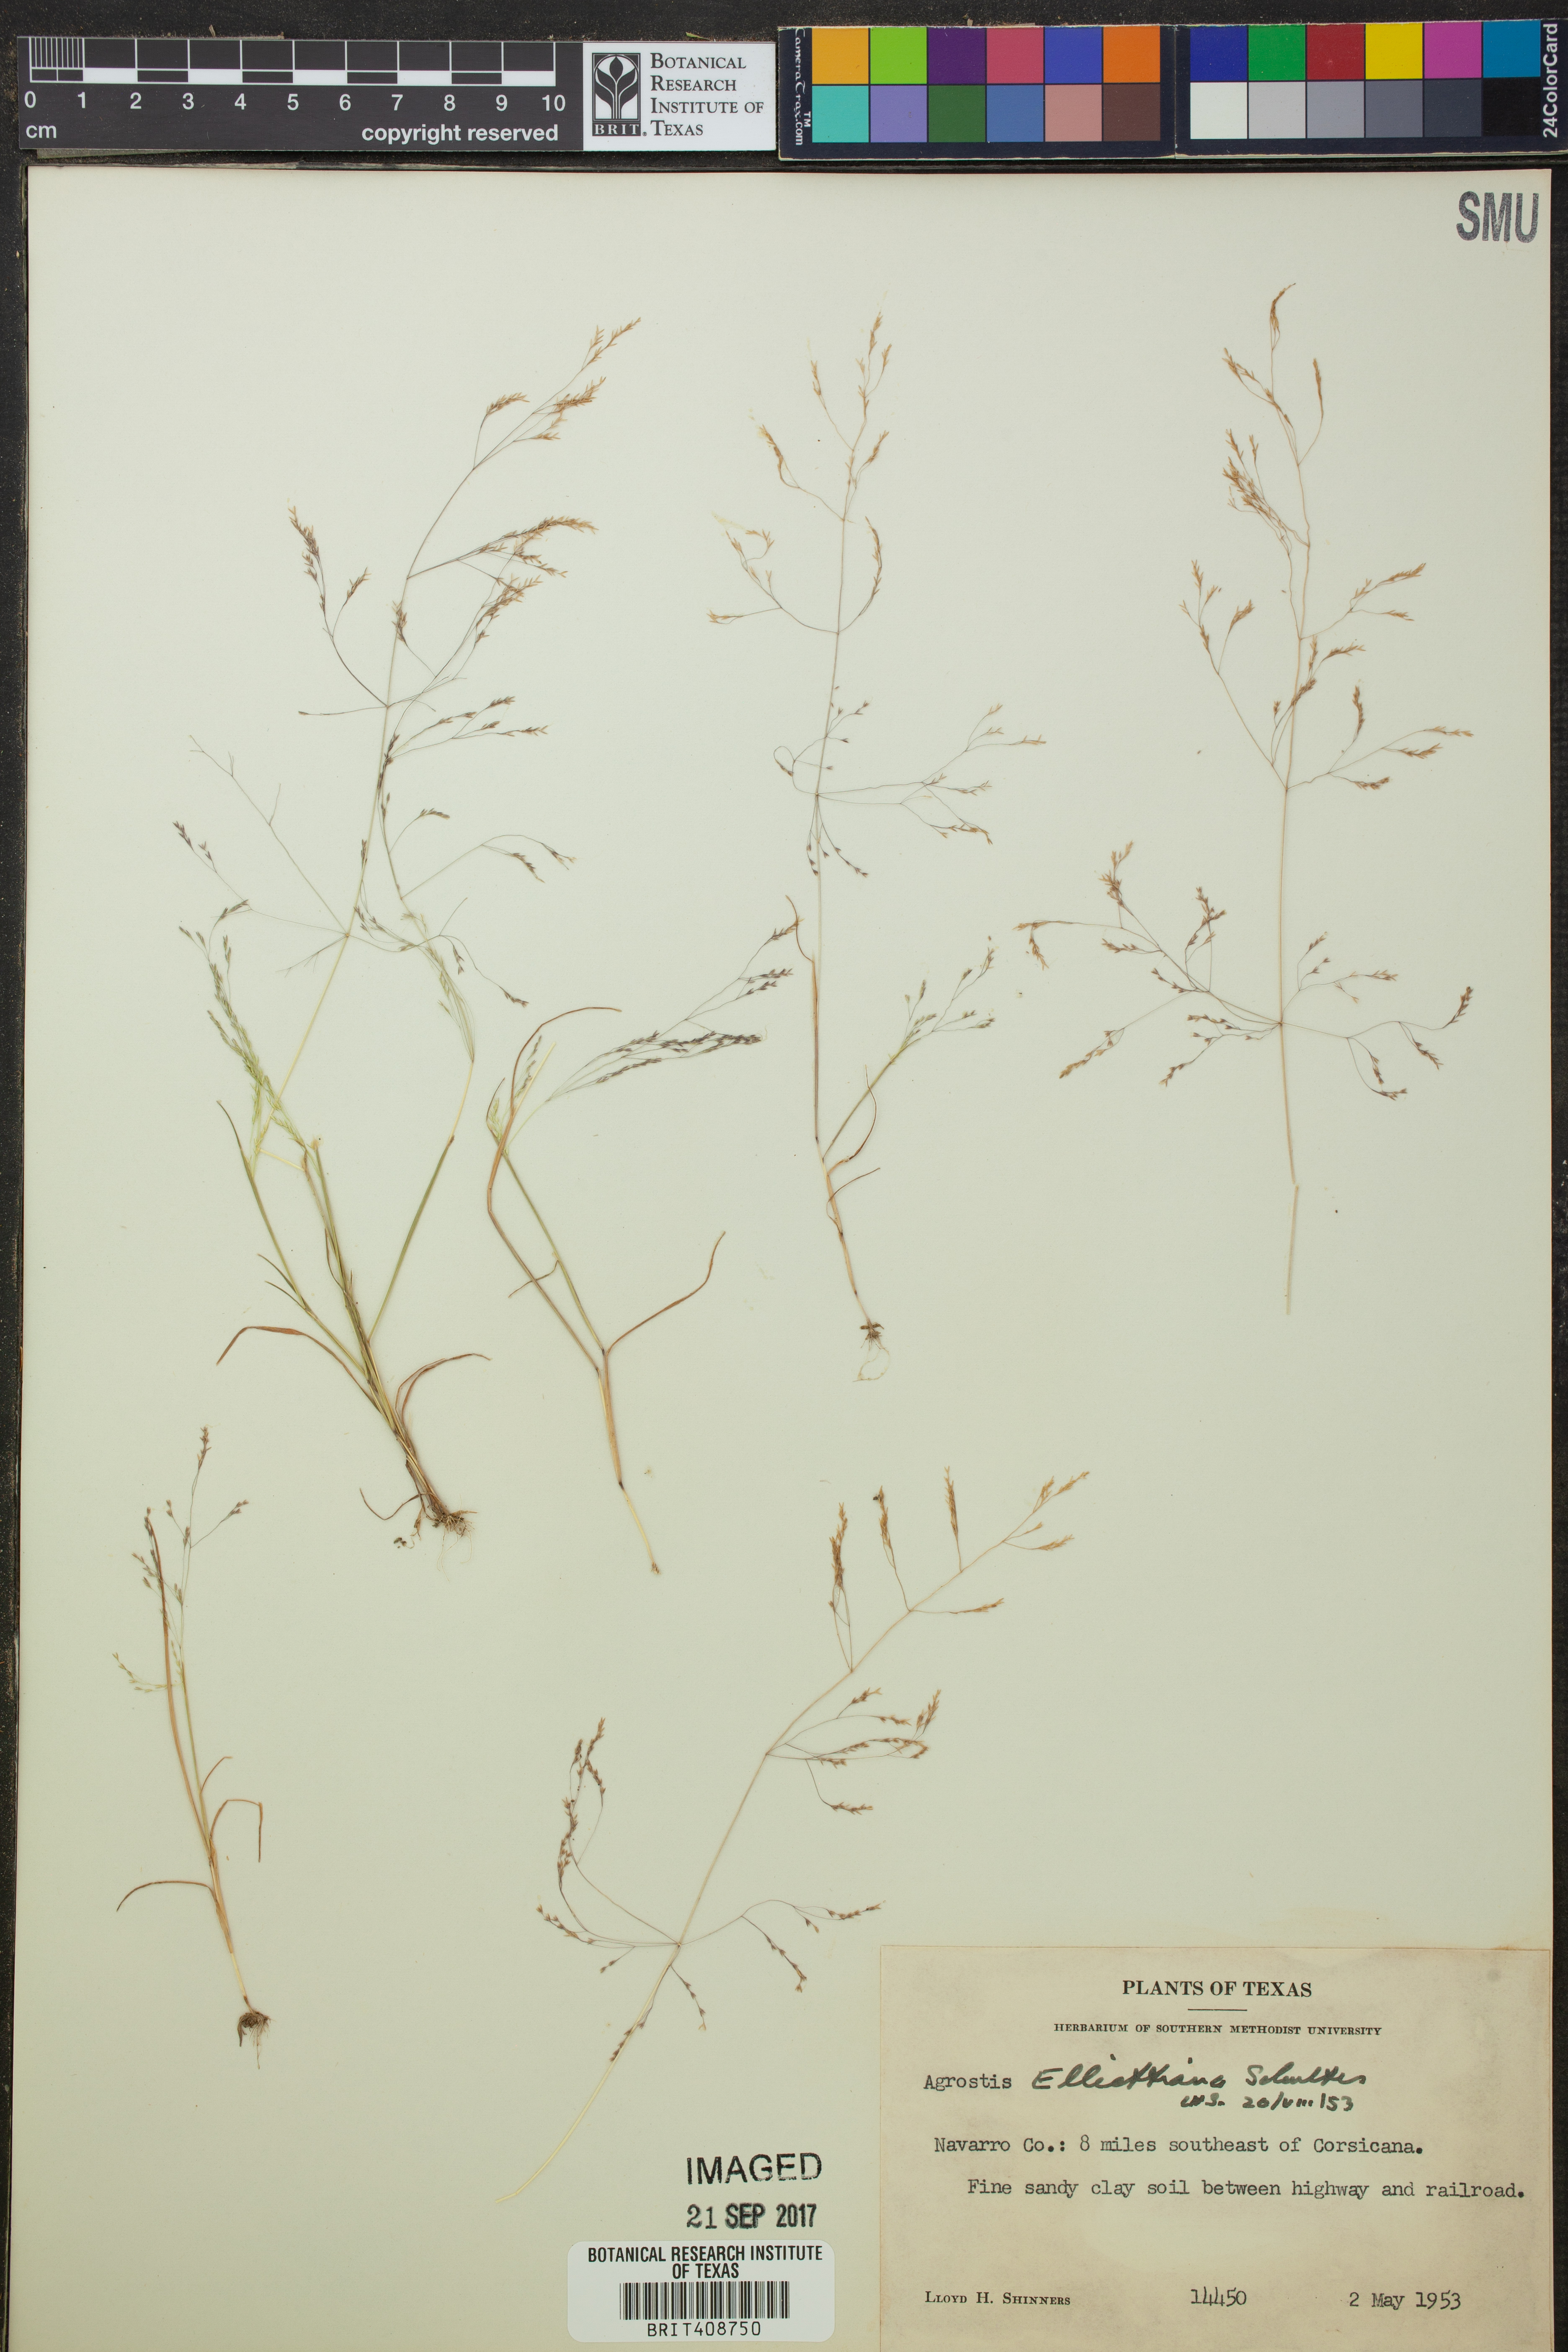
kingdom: Plantae
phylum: Tracheophyta
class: Liliopsida
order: Poales
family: Poaceae
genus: Agrostis
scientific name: Agrostis elliottiana
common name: Elliott's bent
